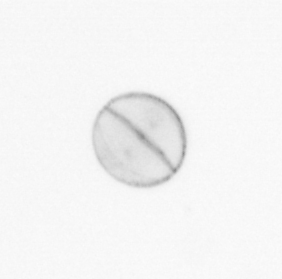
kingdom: Chromista
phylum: Ochrophyta
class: Bacillariophyceae
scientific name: Bacillariophyceae
